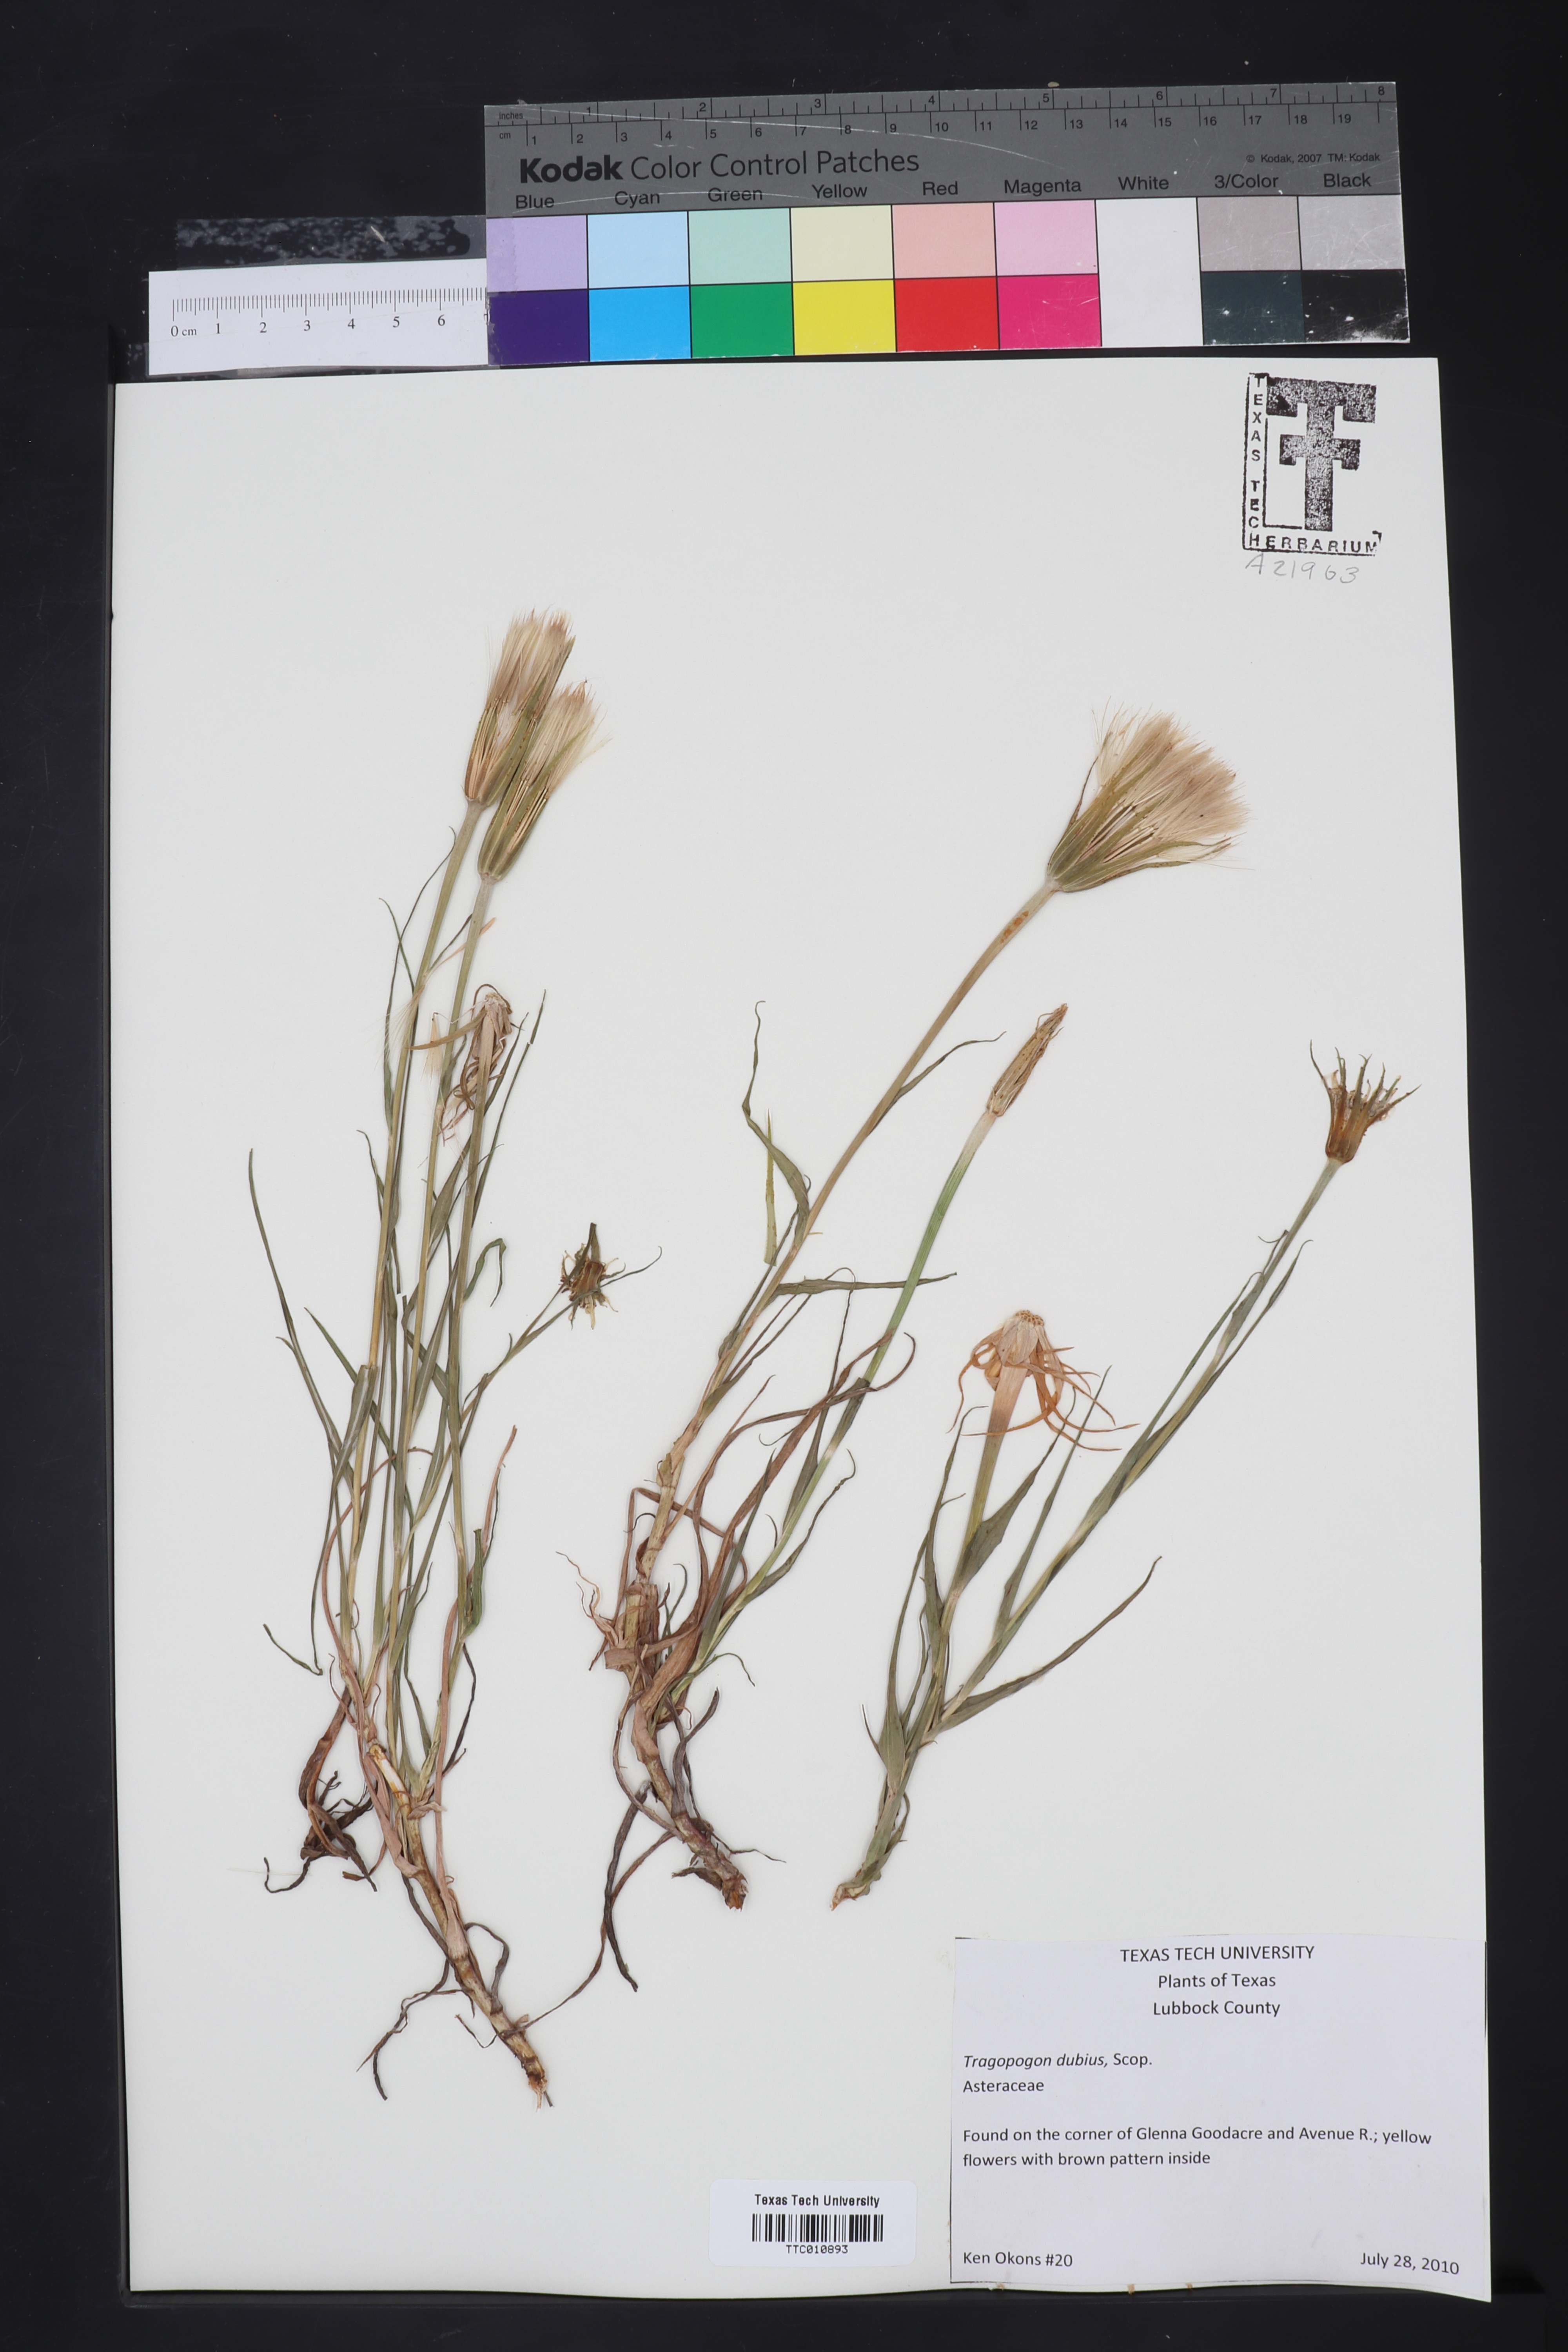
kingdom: Plantae
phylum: Tracheophyta
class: Magnoliopsida
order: Asterales
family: Asteraceae
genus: Tragopogon
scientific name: Tragopogon dubius
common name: Yellow salsify
